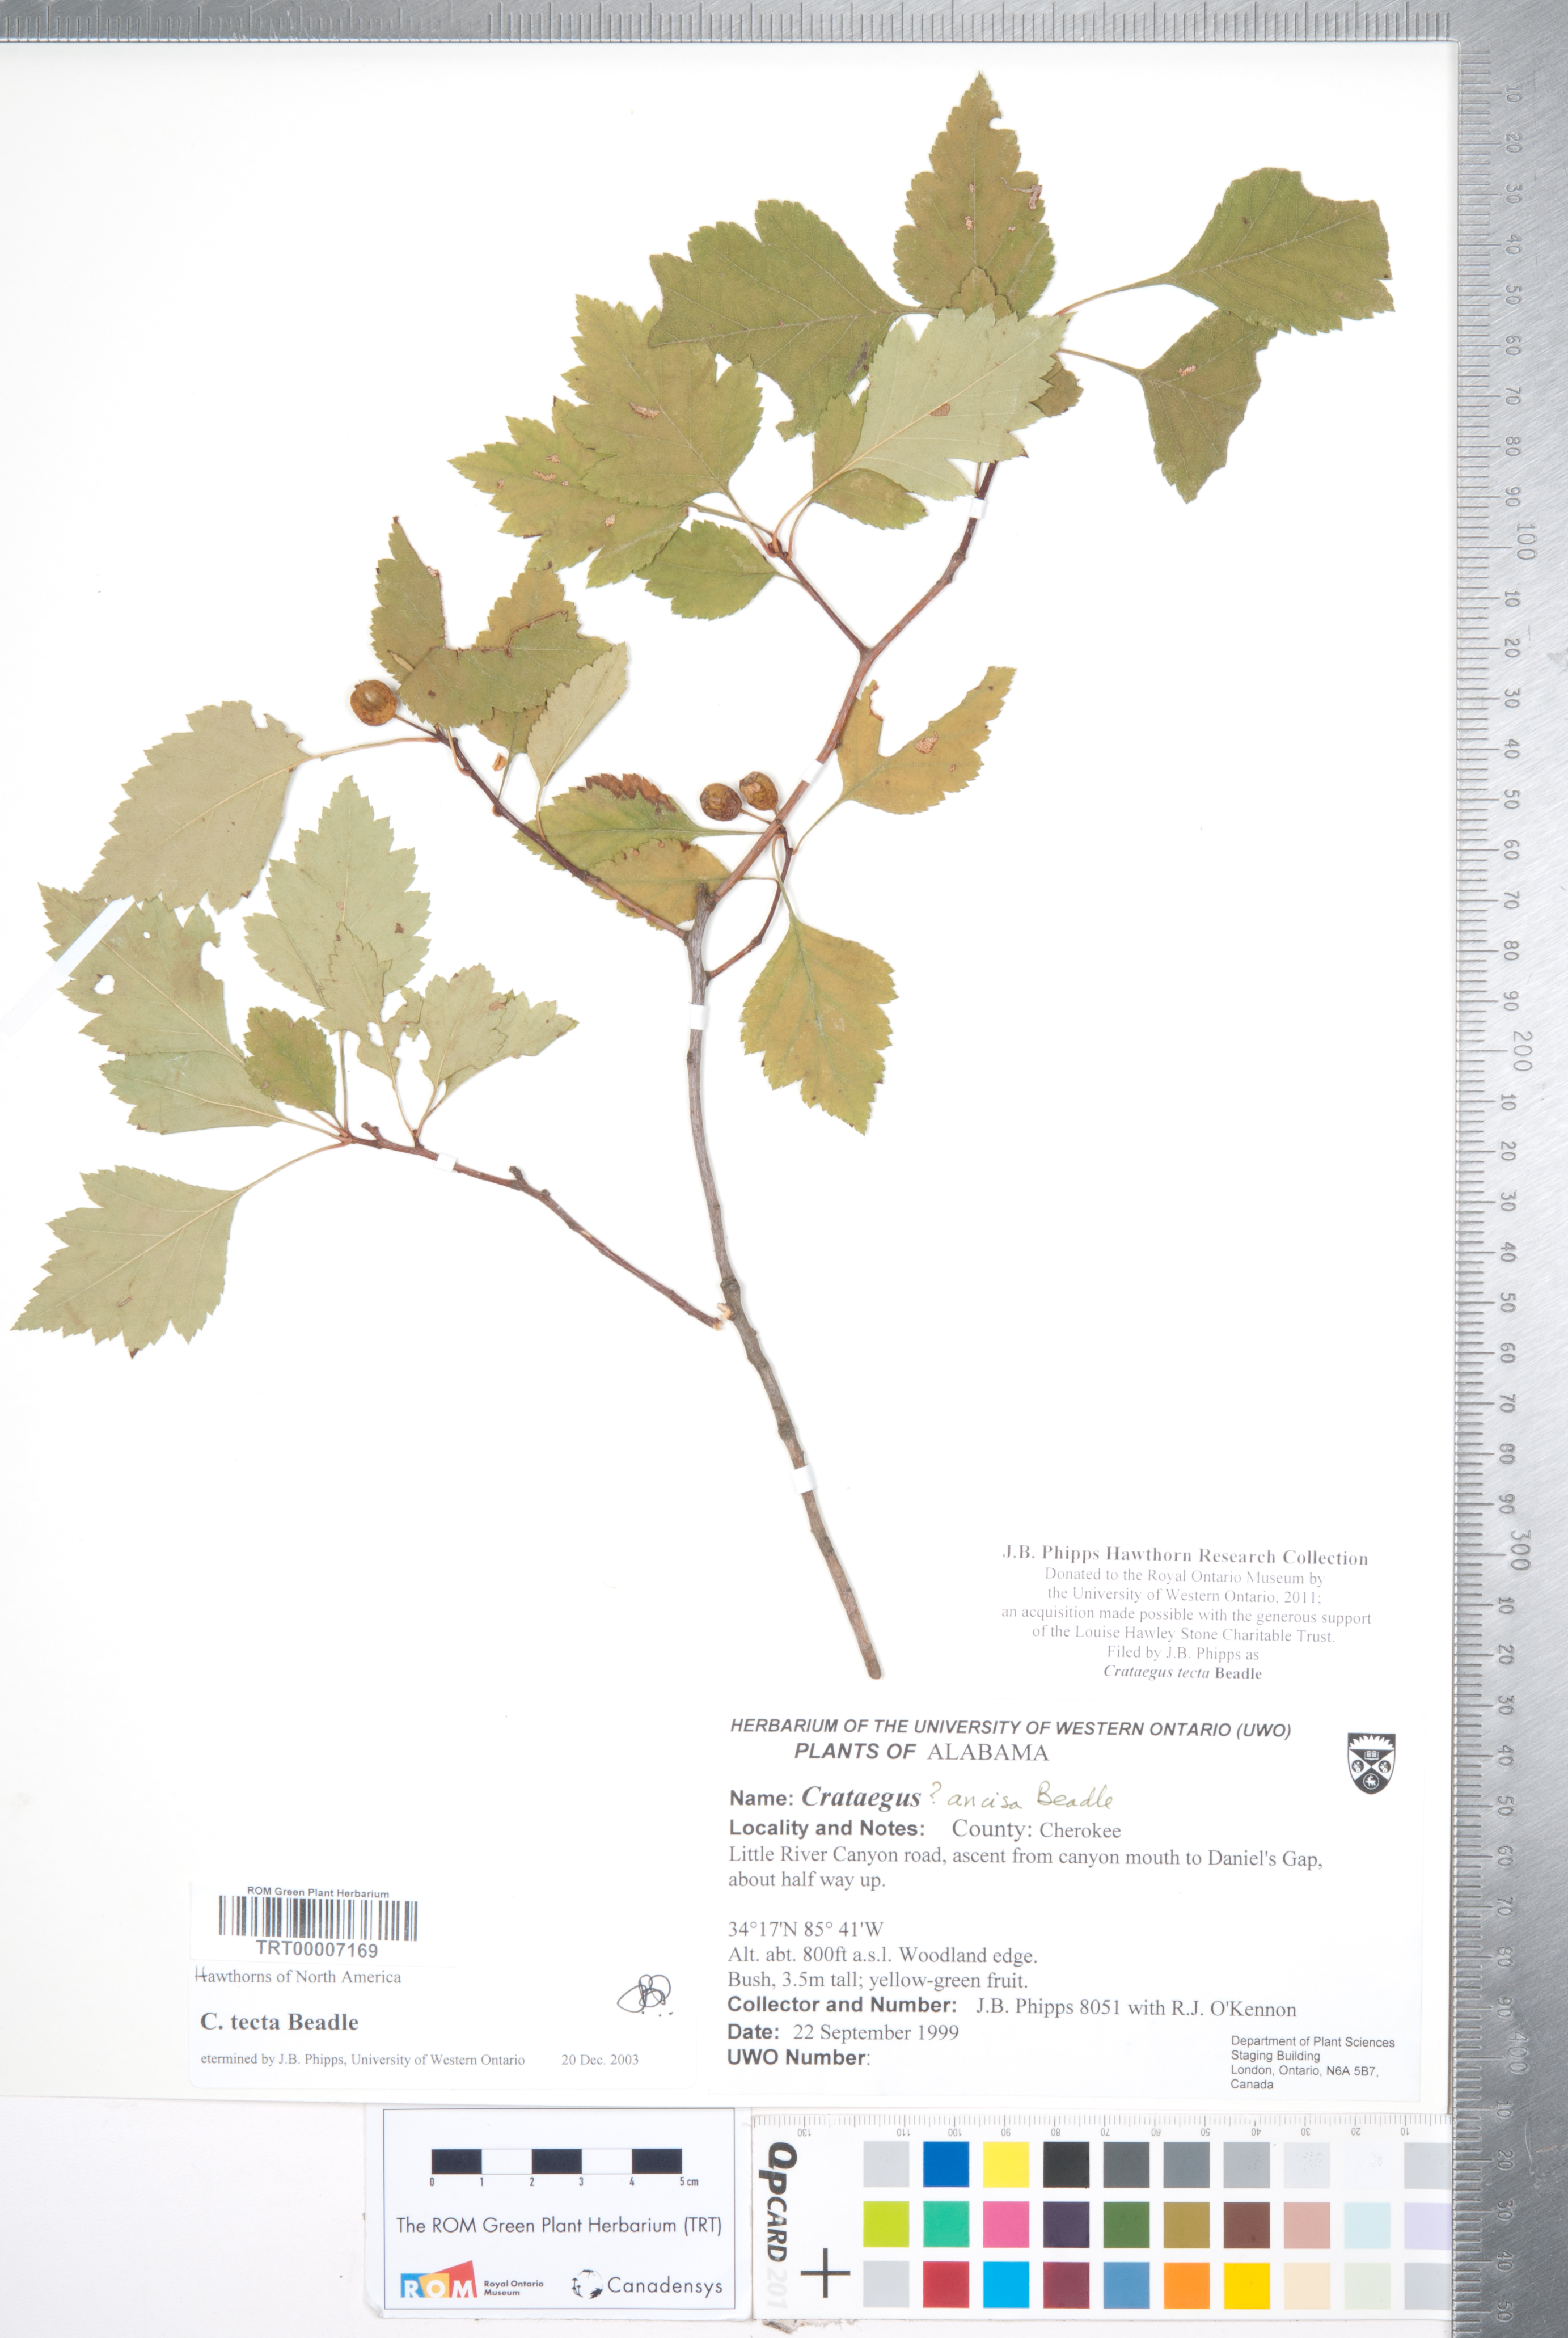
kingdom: Plantae
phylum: Tracheophyta
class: Magnoliopsida
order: Rosales
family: Rosaceae
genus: Crataegus
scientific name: Crataegus pulcherrima
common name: Beautiful hawthorn
